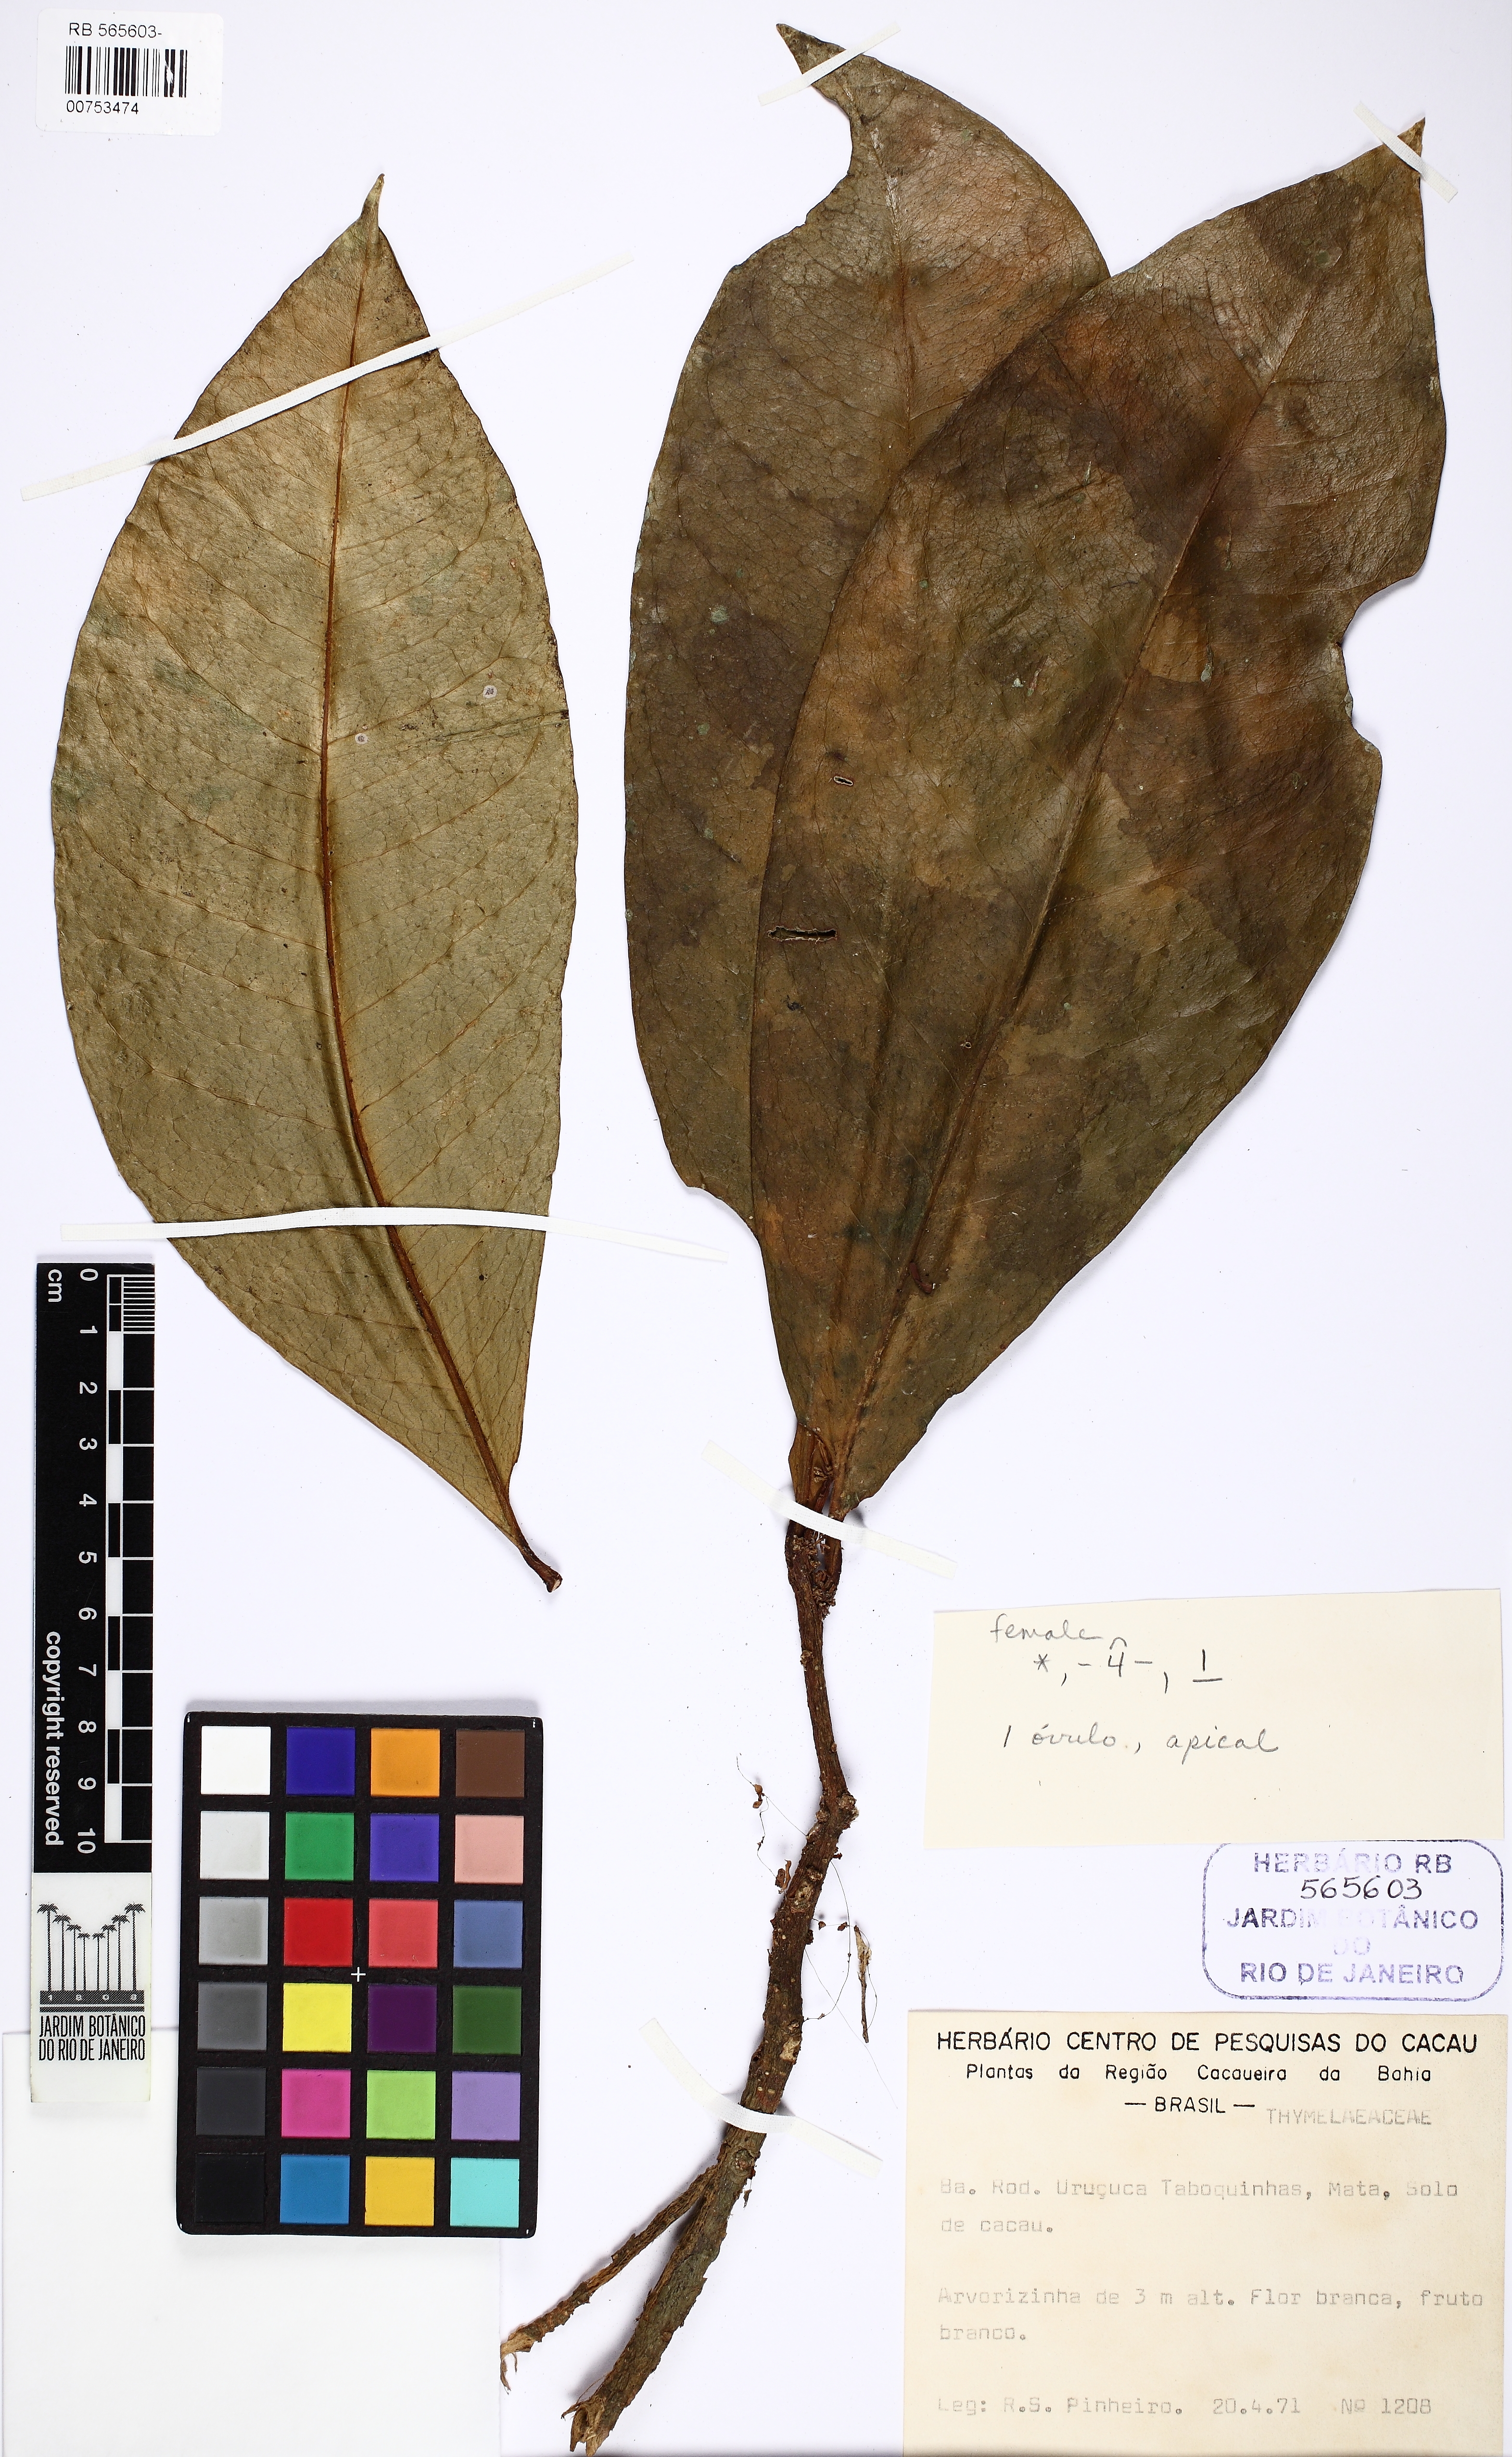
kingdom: Plantae
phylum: Tracheophyta
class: Magnoliopsida
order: Malvales
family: Thymelaeaceae
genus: Daphnopsis
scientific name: Daphnopsis racemosa
